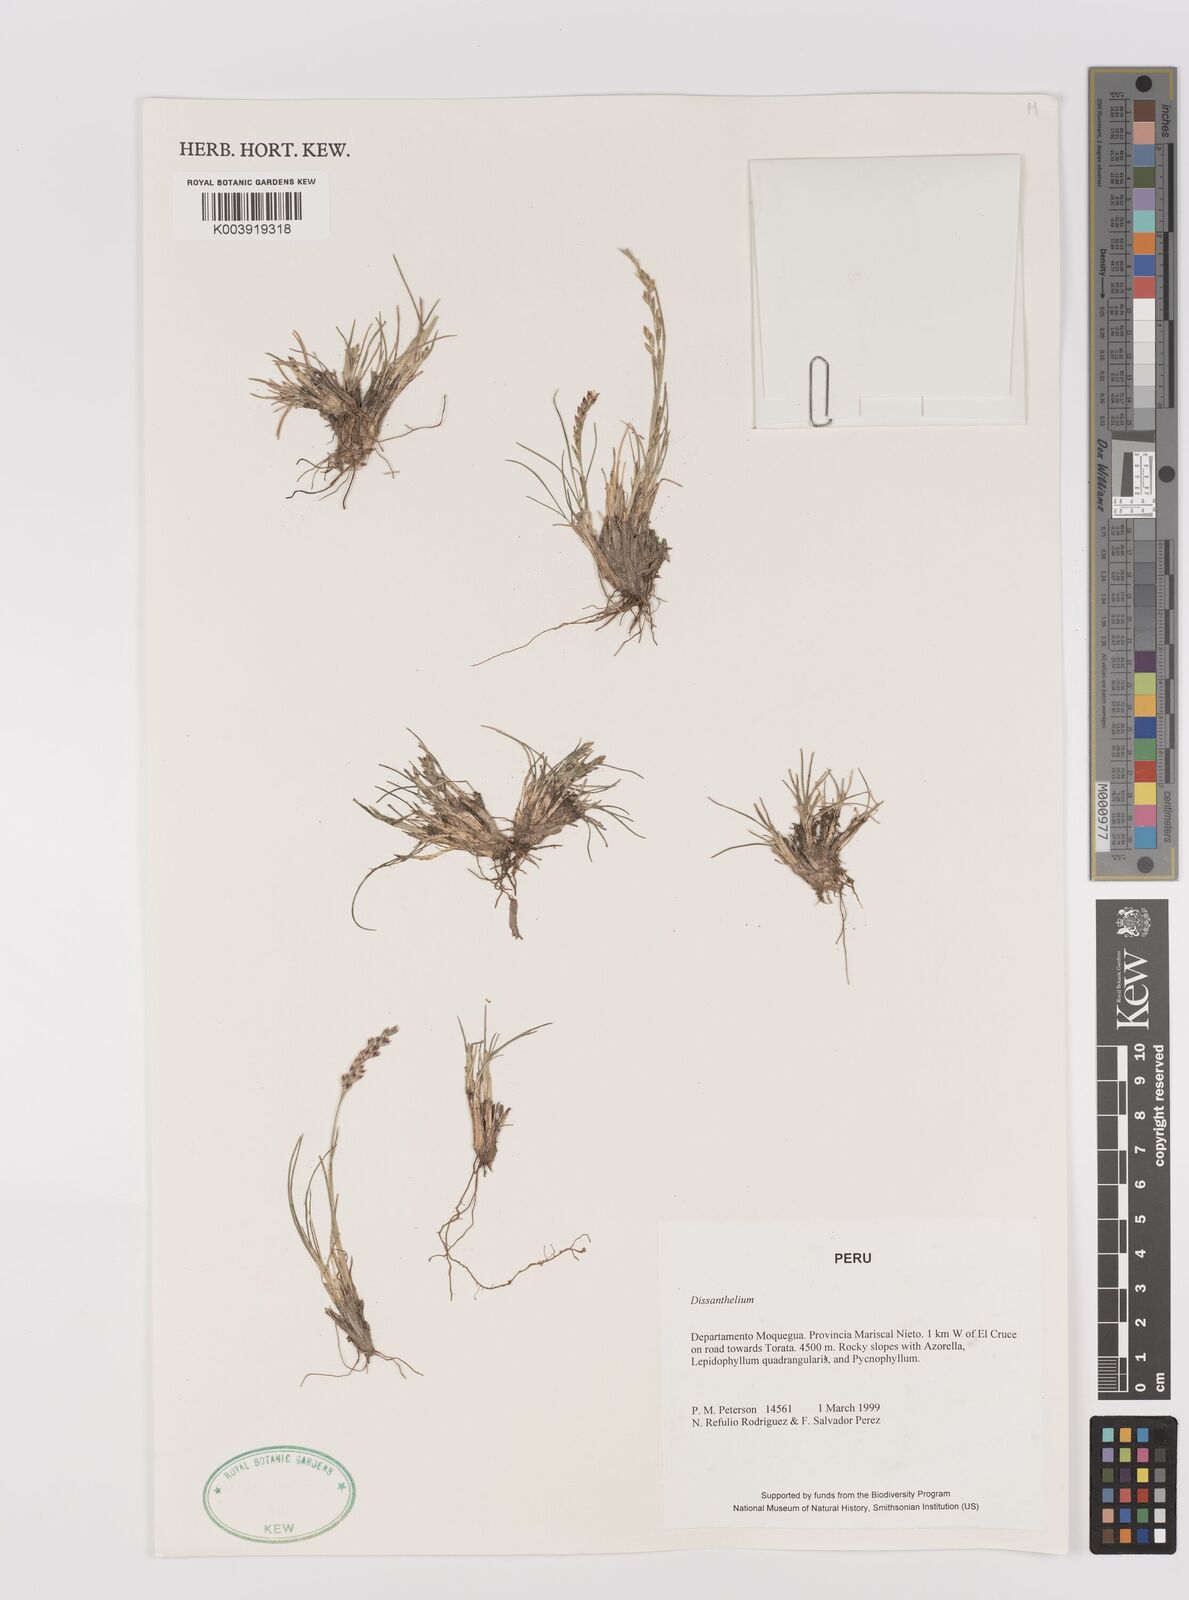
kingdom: Plantae
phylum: Tracheophyta
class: Liliopsida
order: Poales
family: Poaceae
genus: Poa
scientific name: Poa
